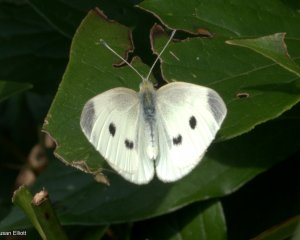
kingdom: Animalia
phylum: Arthropoda
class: Insecta
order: Lepidoptera
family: Pieridae
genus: Pieris
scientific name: Pieris rapae
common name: Cabbage White
